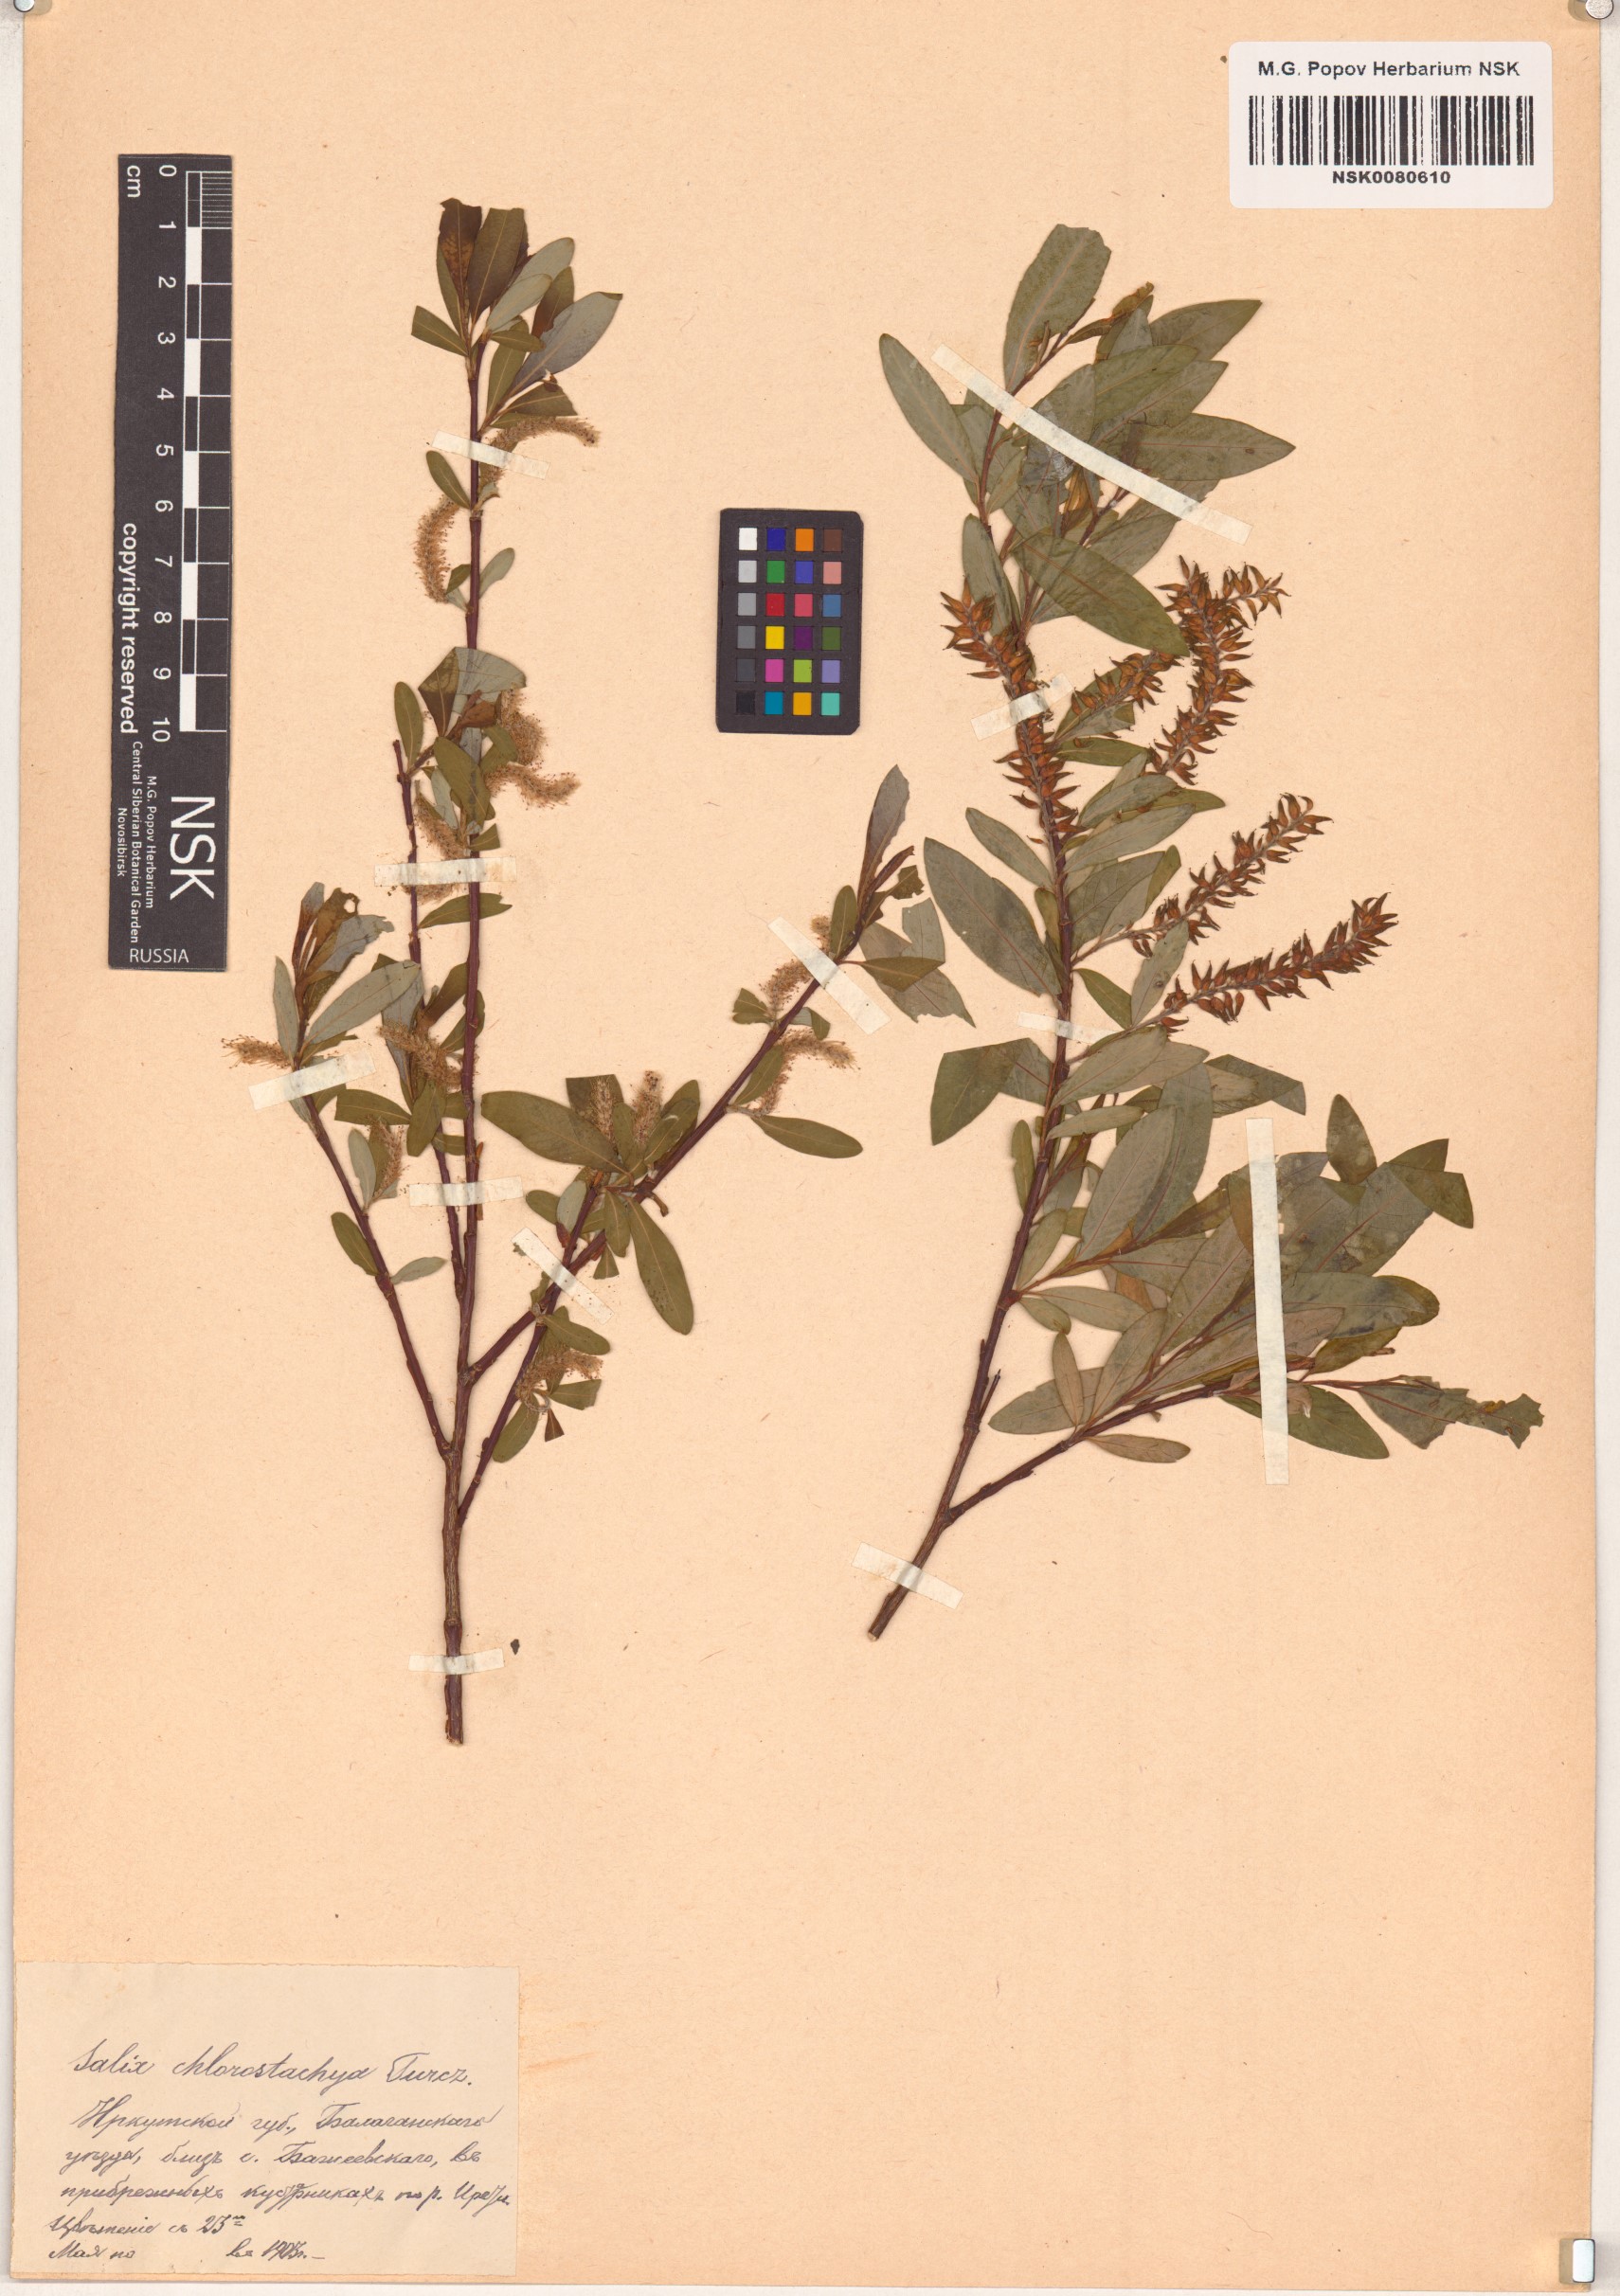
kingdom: Plantae
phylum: Tracheophyta
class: Magnoliopsida
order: Malpighiales
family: Salicaceae
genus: Salix
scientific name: Salix rhamnifolia
